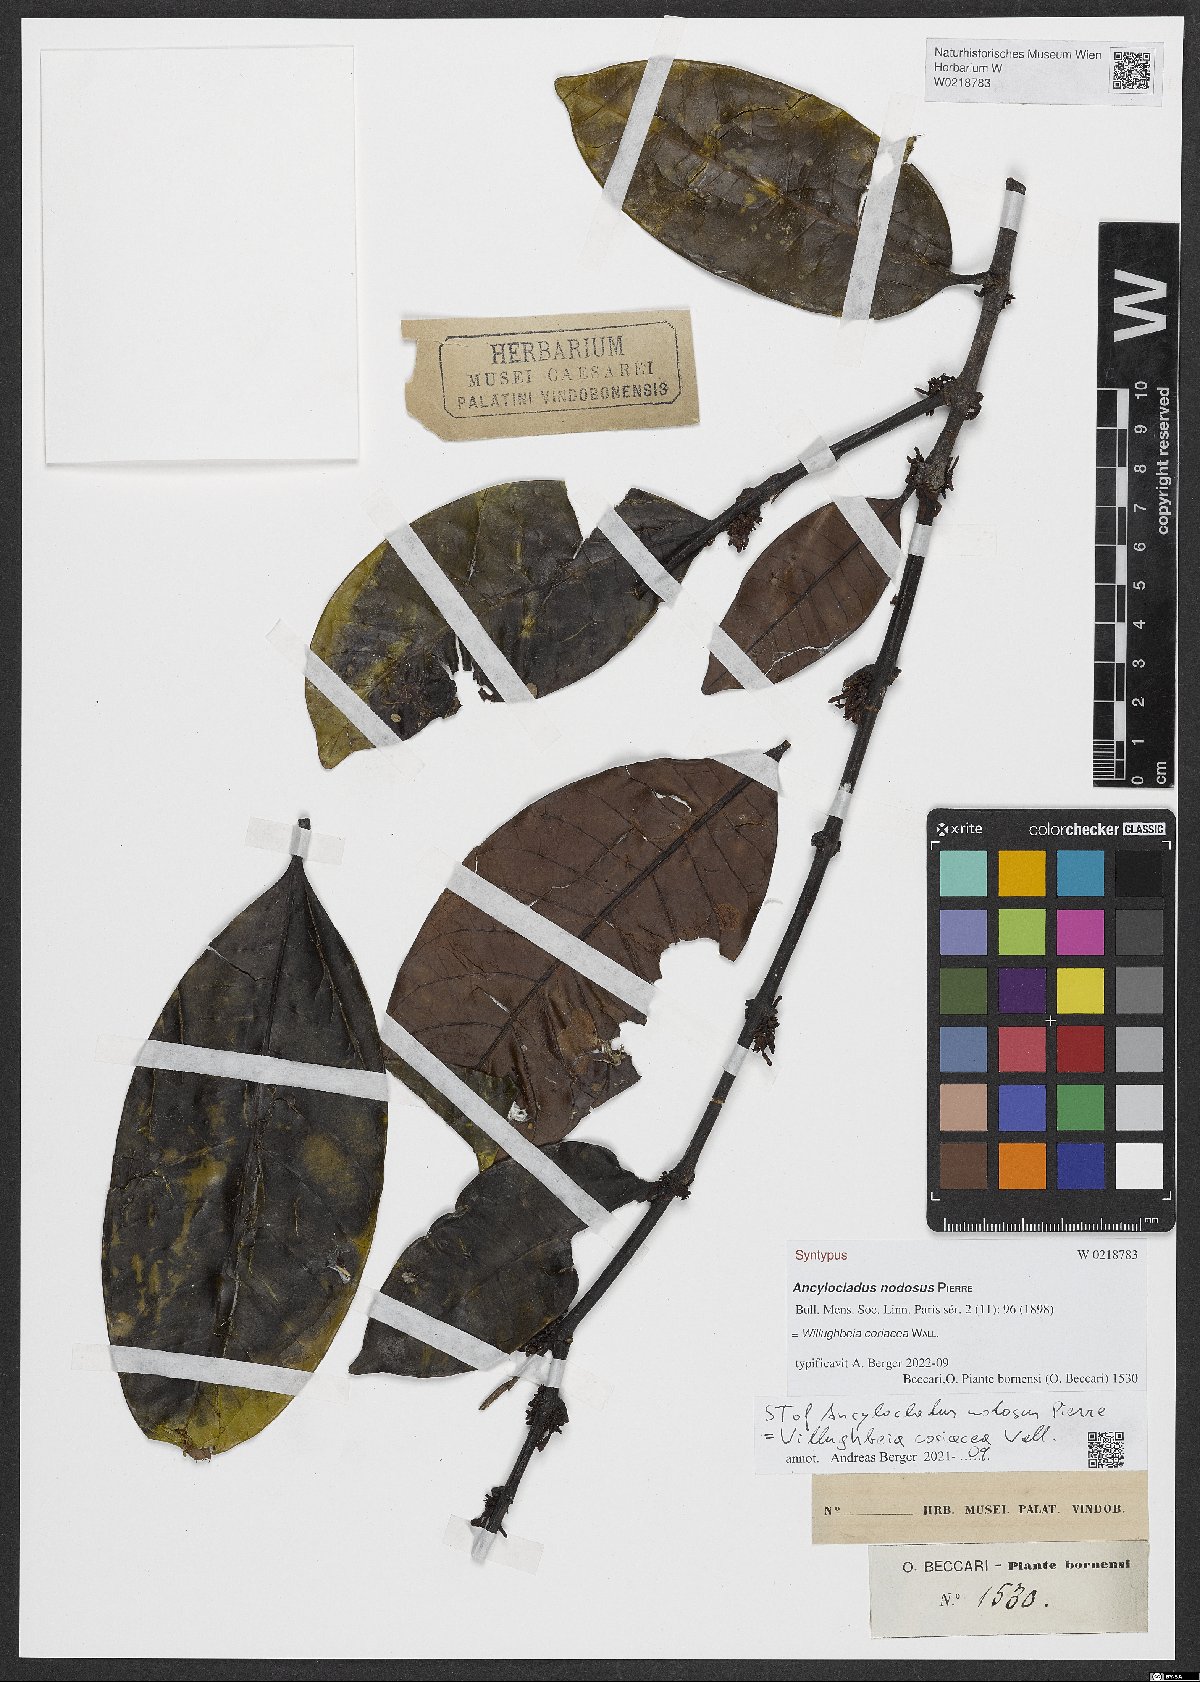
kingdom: Plantae
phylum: Tracheophyta
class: Magnoliopsida
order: Gentianales
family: Apocynaceae
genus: Willughbeia
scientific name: Willughbeia coriacea
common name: Borneo-rubber
